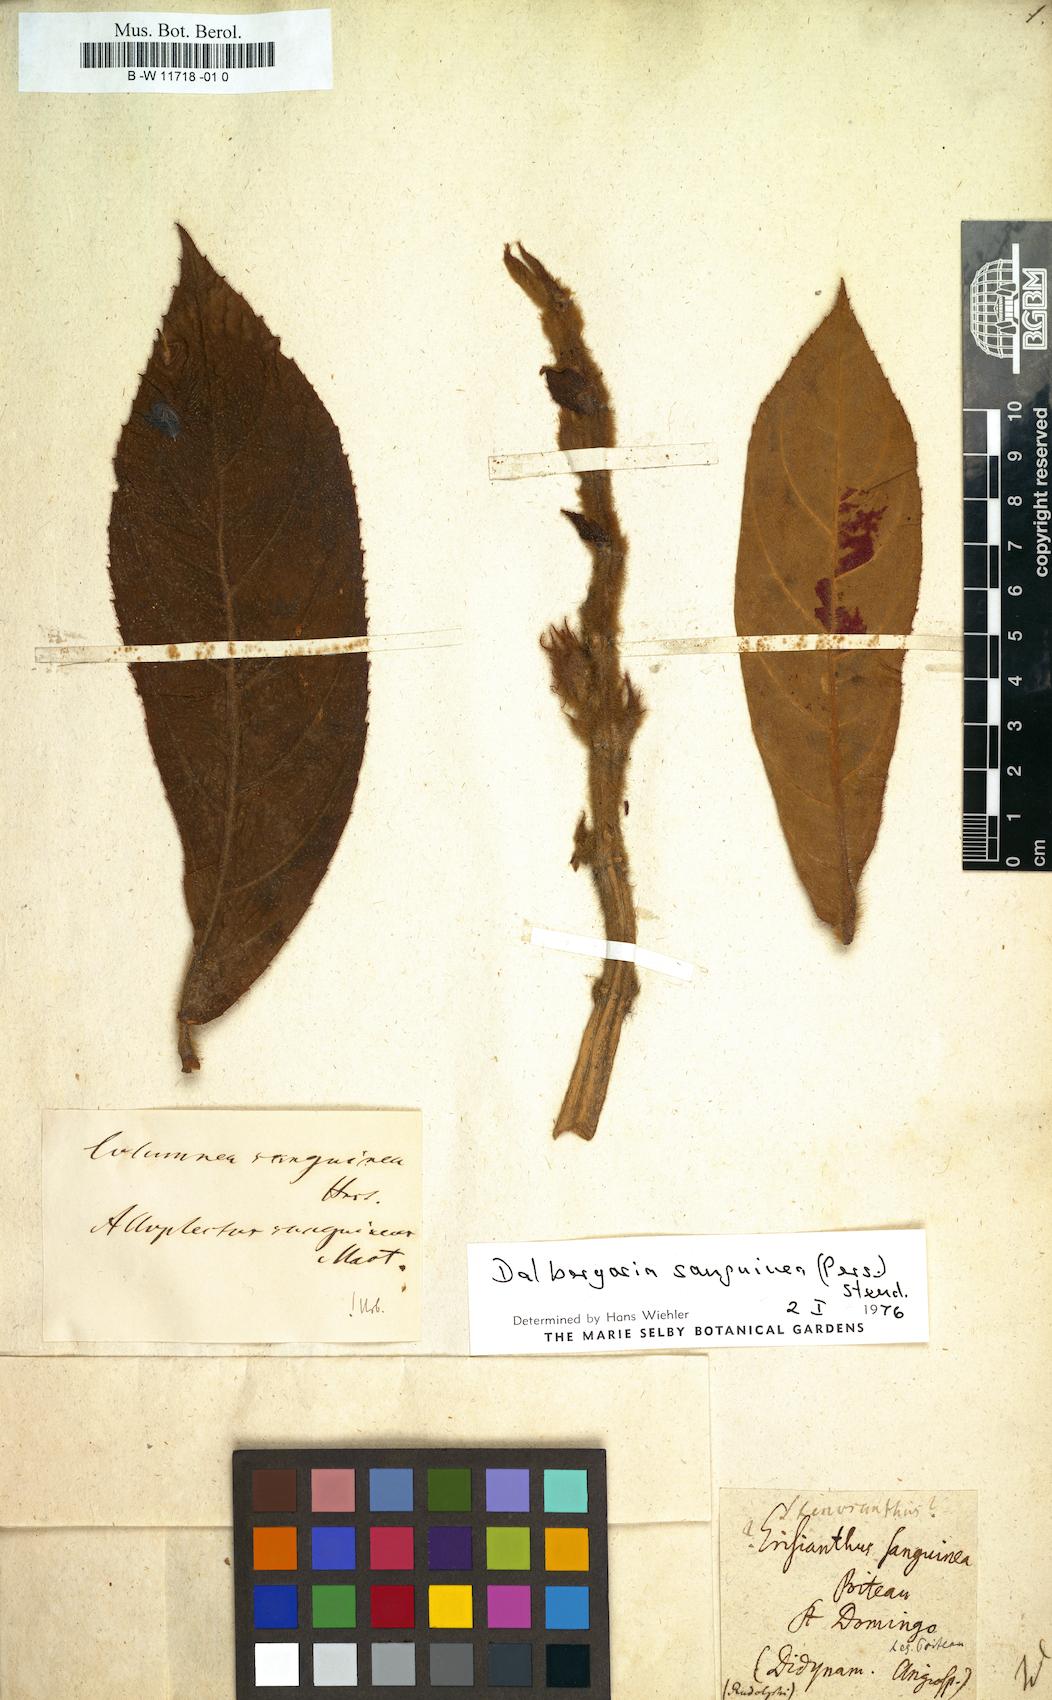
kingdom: Plantae
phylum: Tracheophyta
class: Magnoliopsida
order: Lamiales
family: Gesneriaceae
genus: Columnea
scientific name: Columnea
